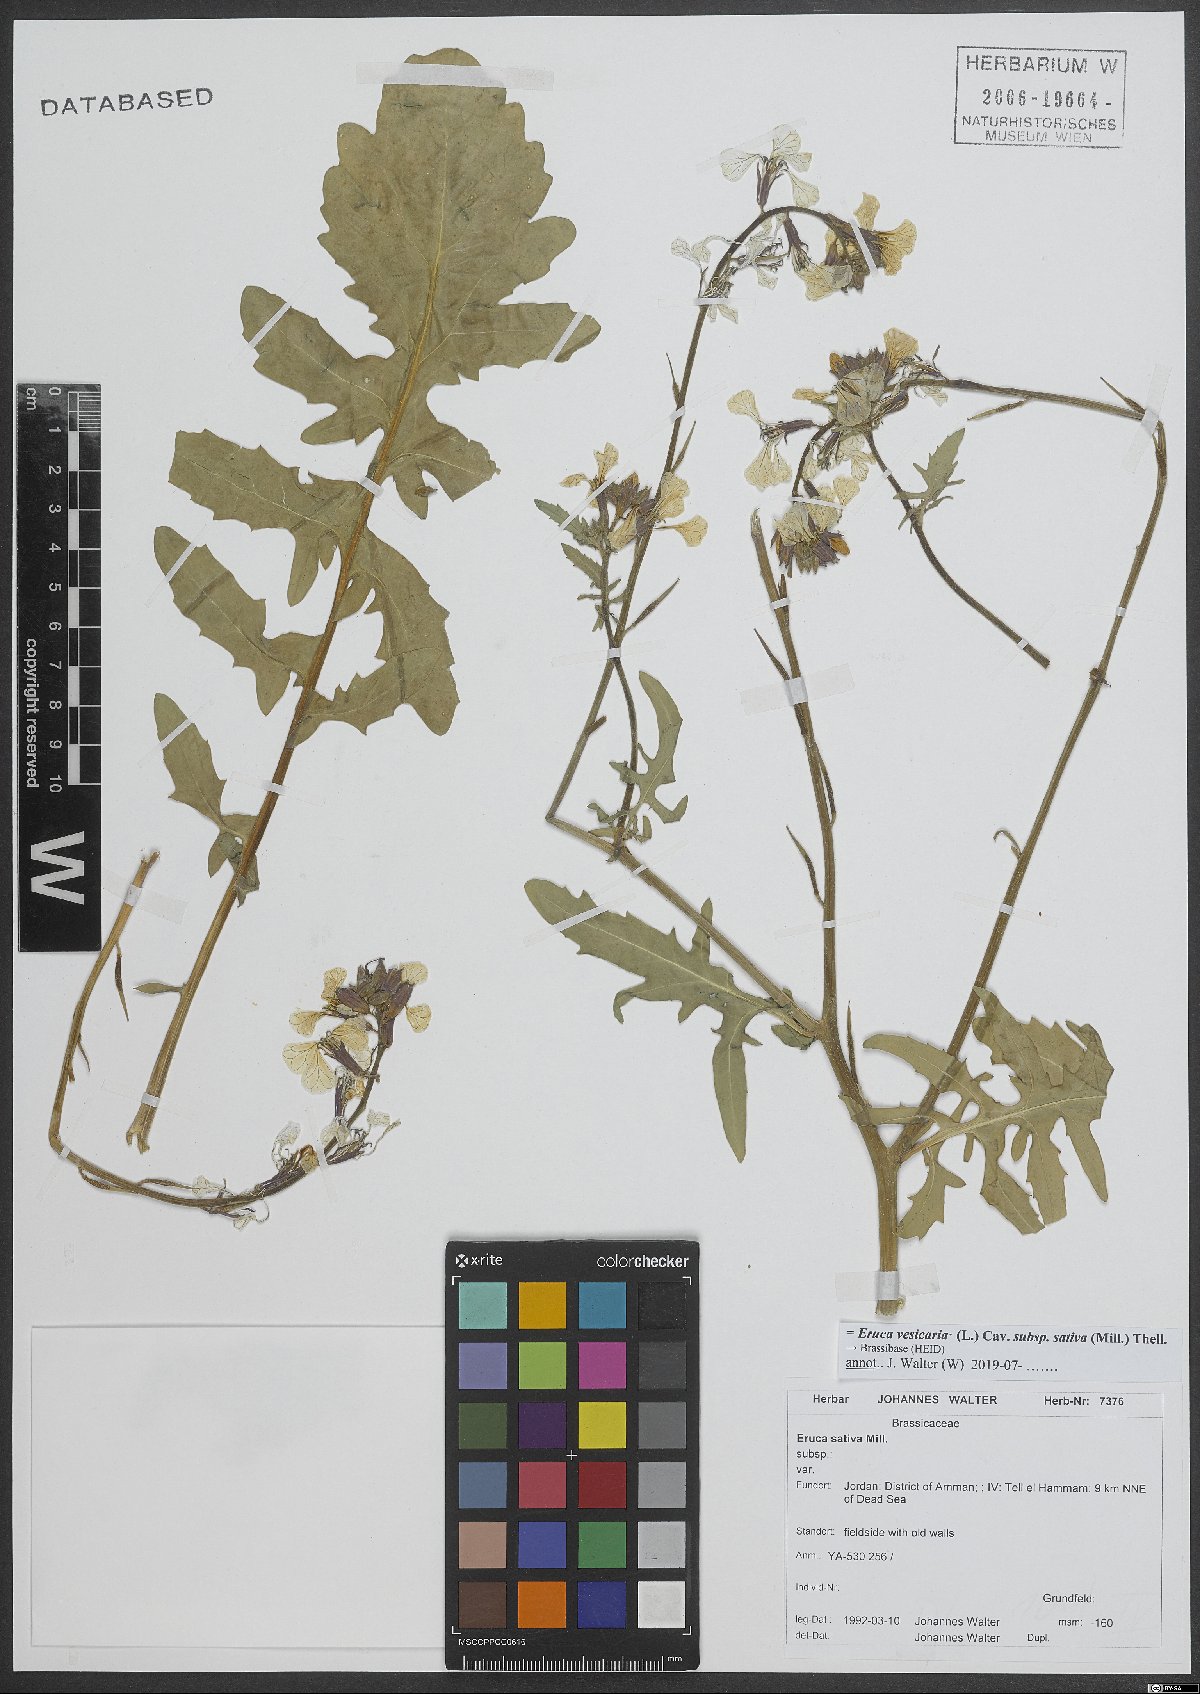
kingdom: Plantae
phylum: Tracheophyta
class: Magnoliopsida
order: Brassicales
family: Brassicaceae
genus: Eruca
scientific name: Eruca vesicaria
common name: Garden rocket
